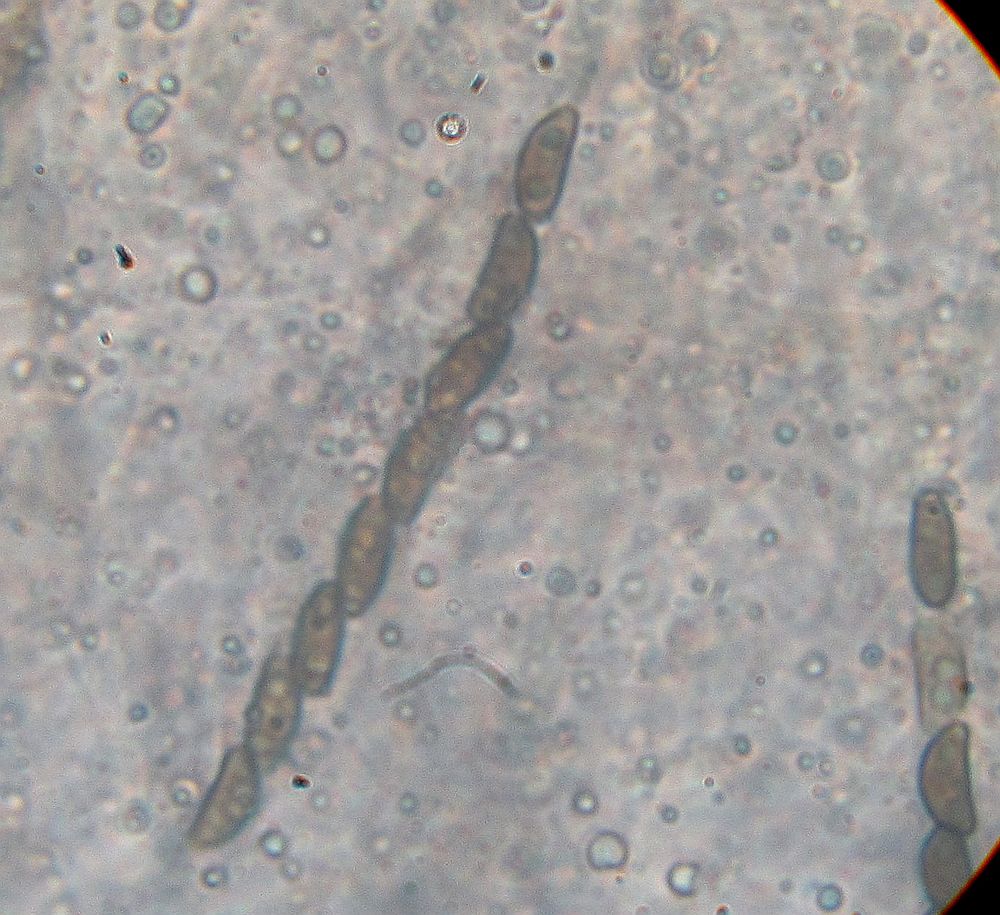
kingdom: Fungi
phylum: Ascomycota
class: Sordariomycetes
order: Xylariales
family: Hypoxylaceae
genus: Jackrogersella
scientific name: Jackrogersella multiformis
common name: foranderlig kulbær
